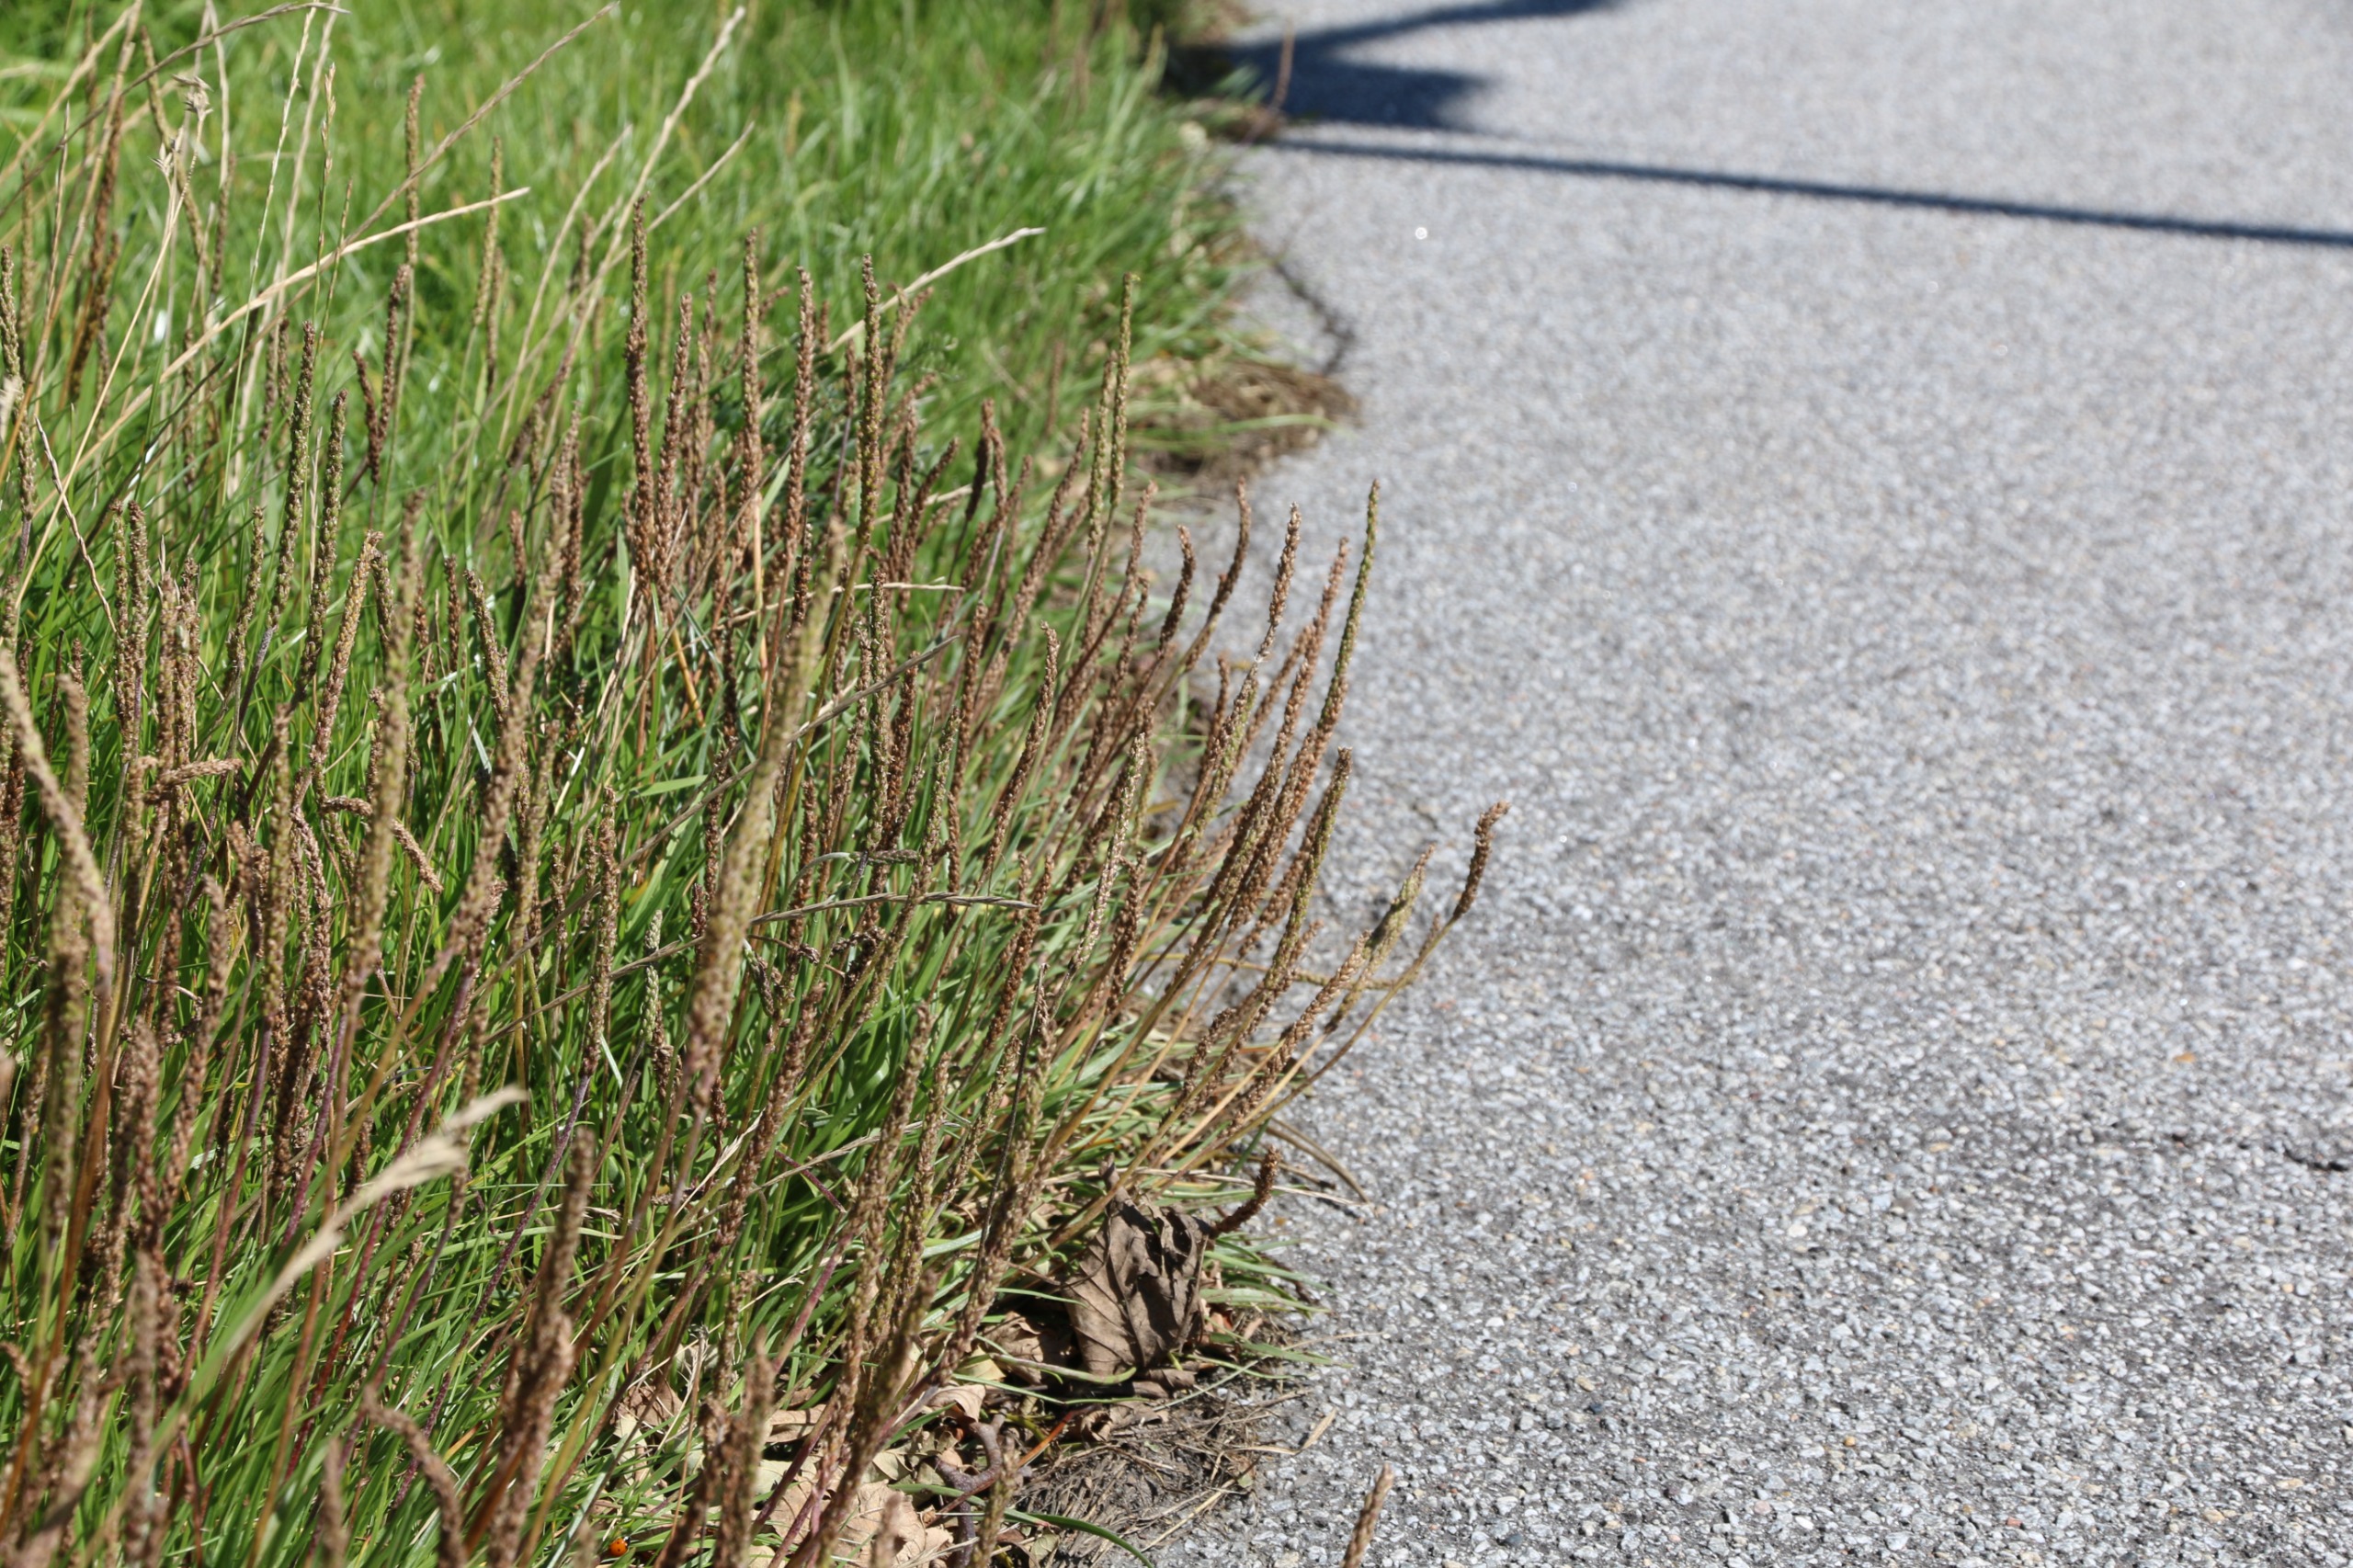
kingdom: Plantae
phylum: Tracheophyta
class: Magnoliopsida
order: Lamiales
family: Plantaginaceae
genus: Plantago
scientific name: Plantago maritima
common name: Strand-vejbred
